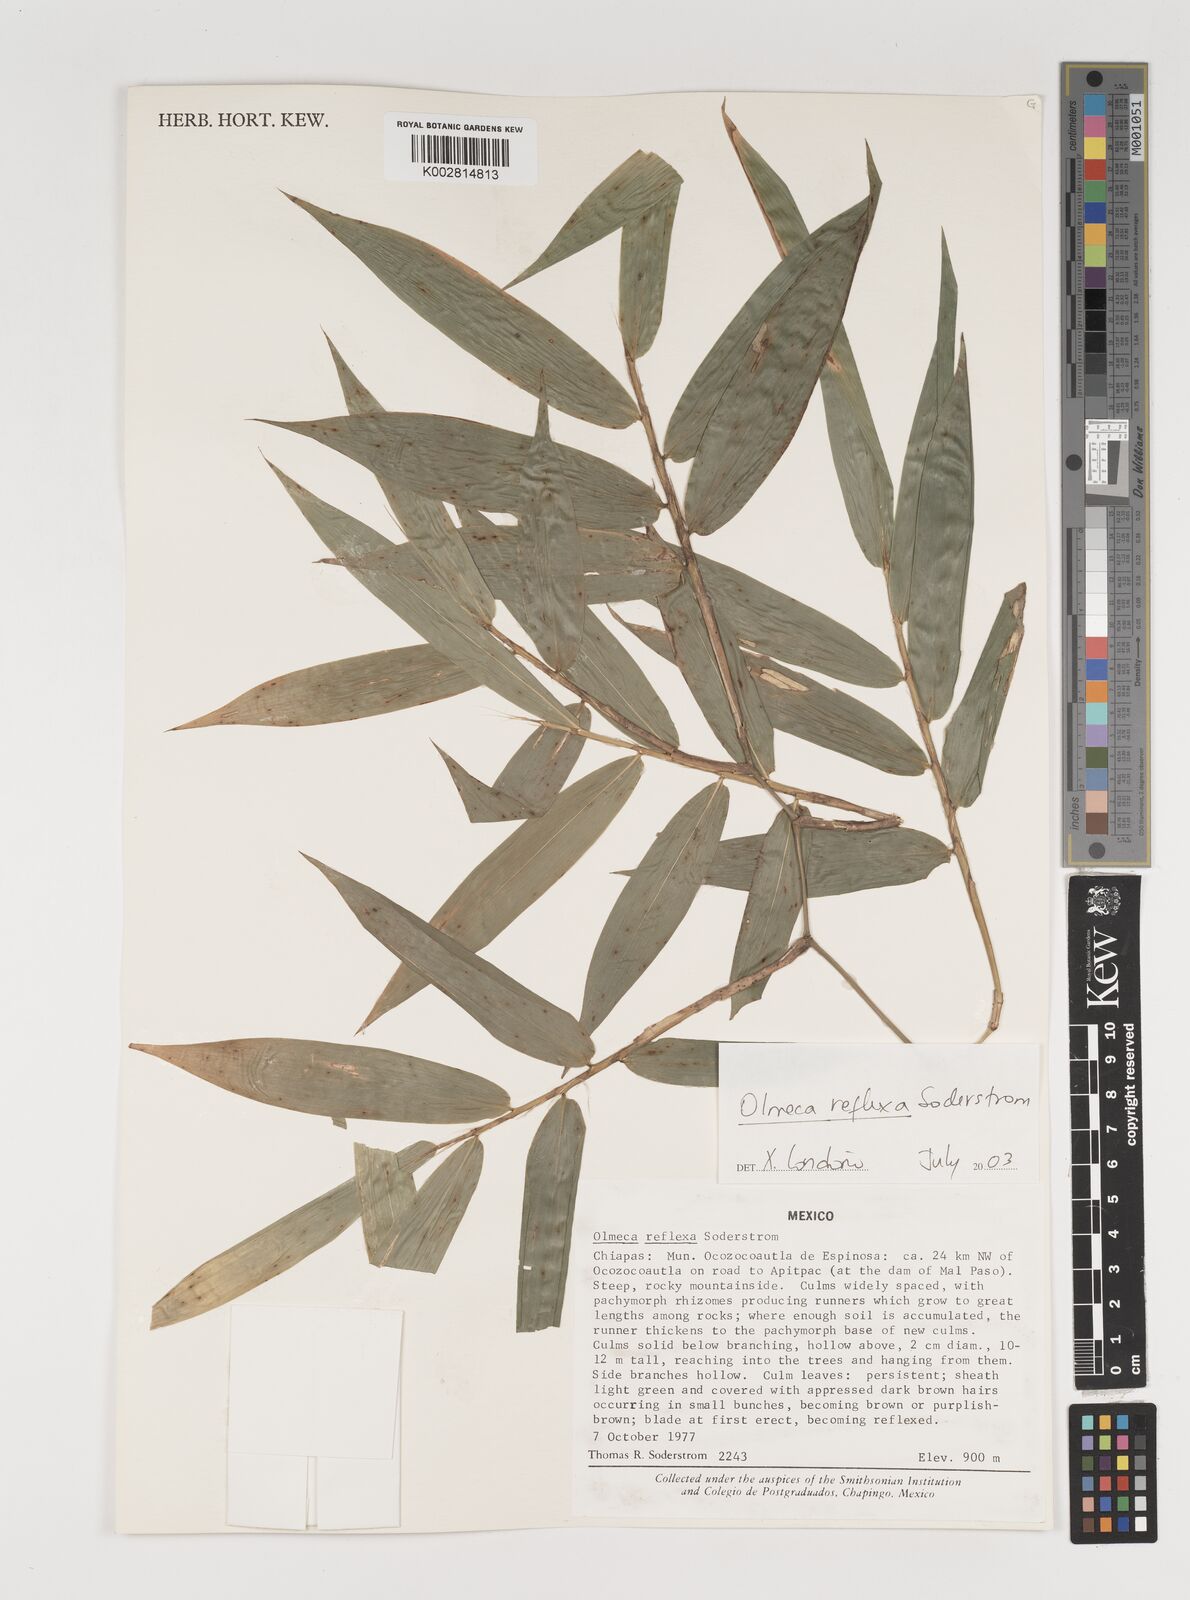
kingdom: Plantae
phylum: Tracheophyta
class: Liliopsida
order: Poales
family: Poaceae
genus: Olmeca
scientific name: Olmeca reflexa
